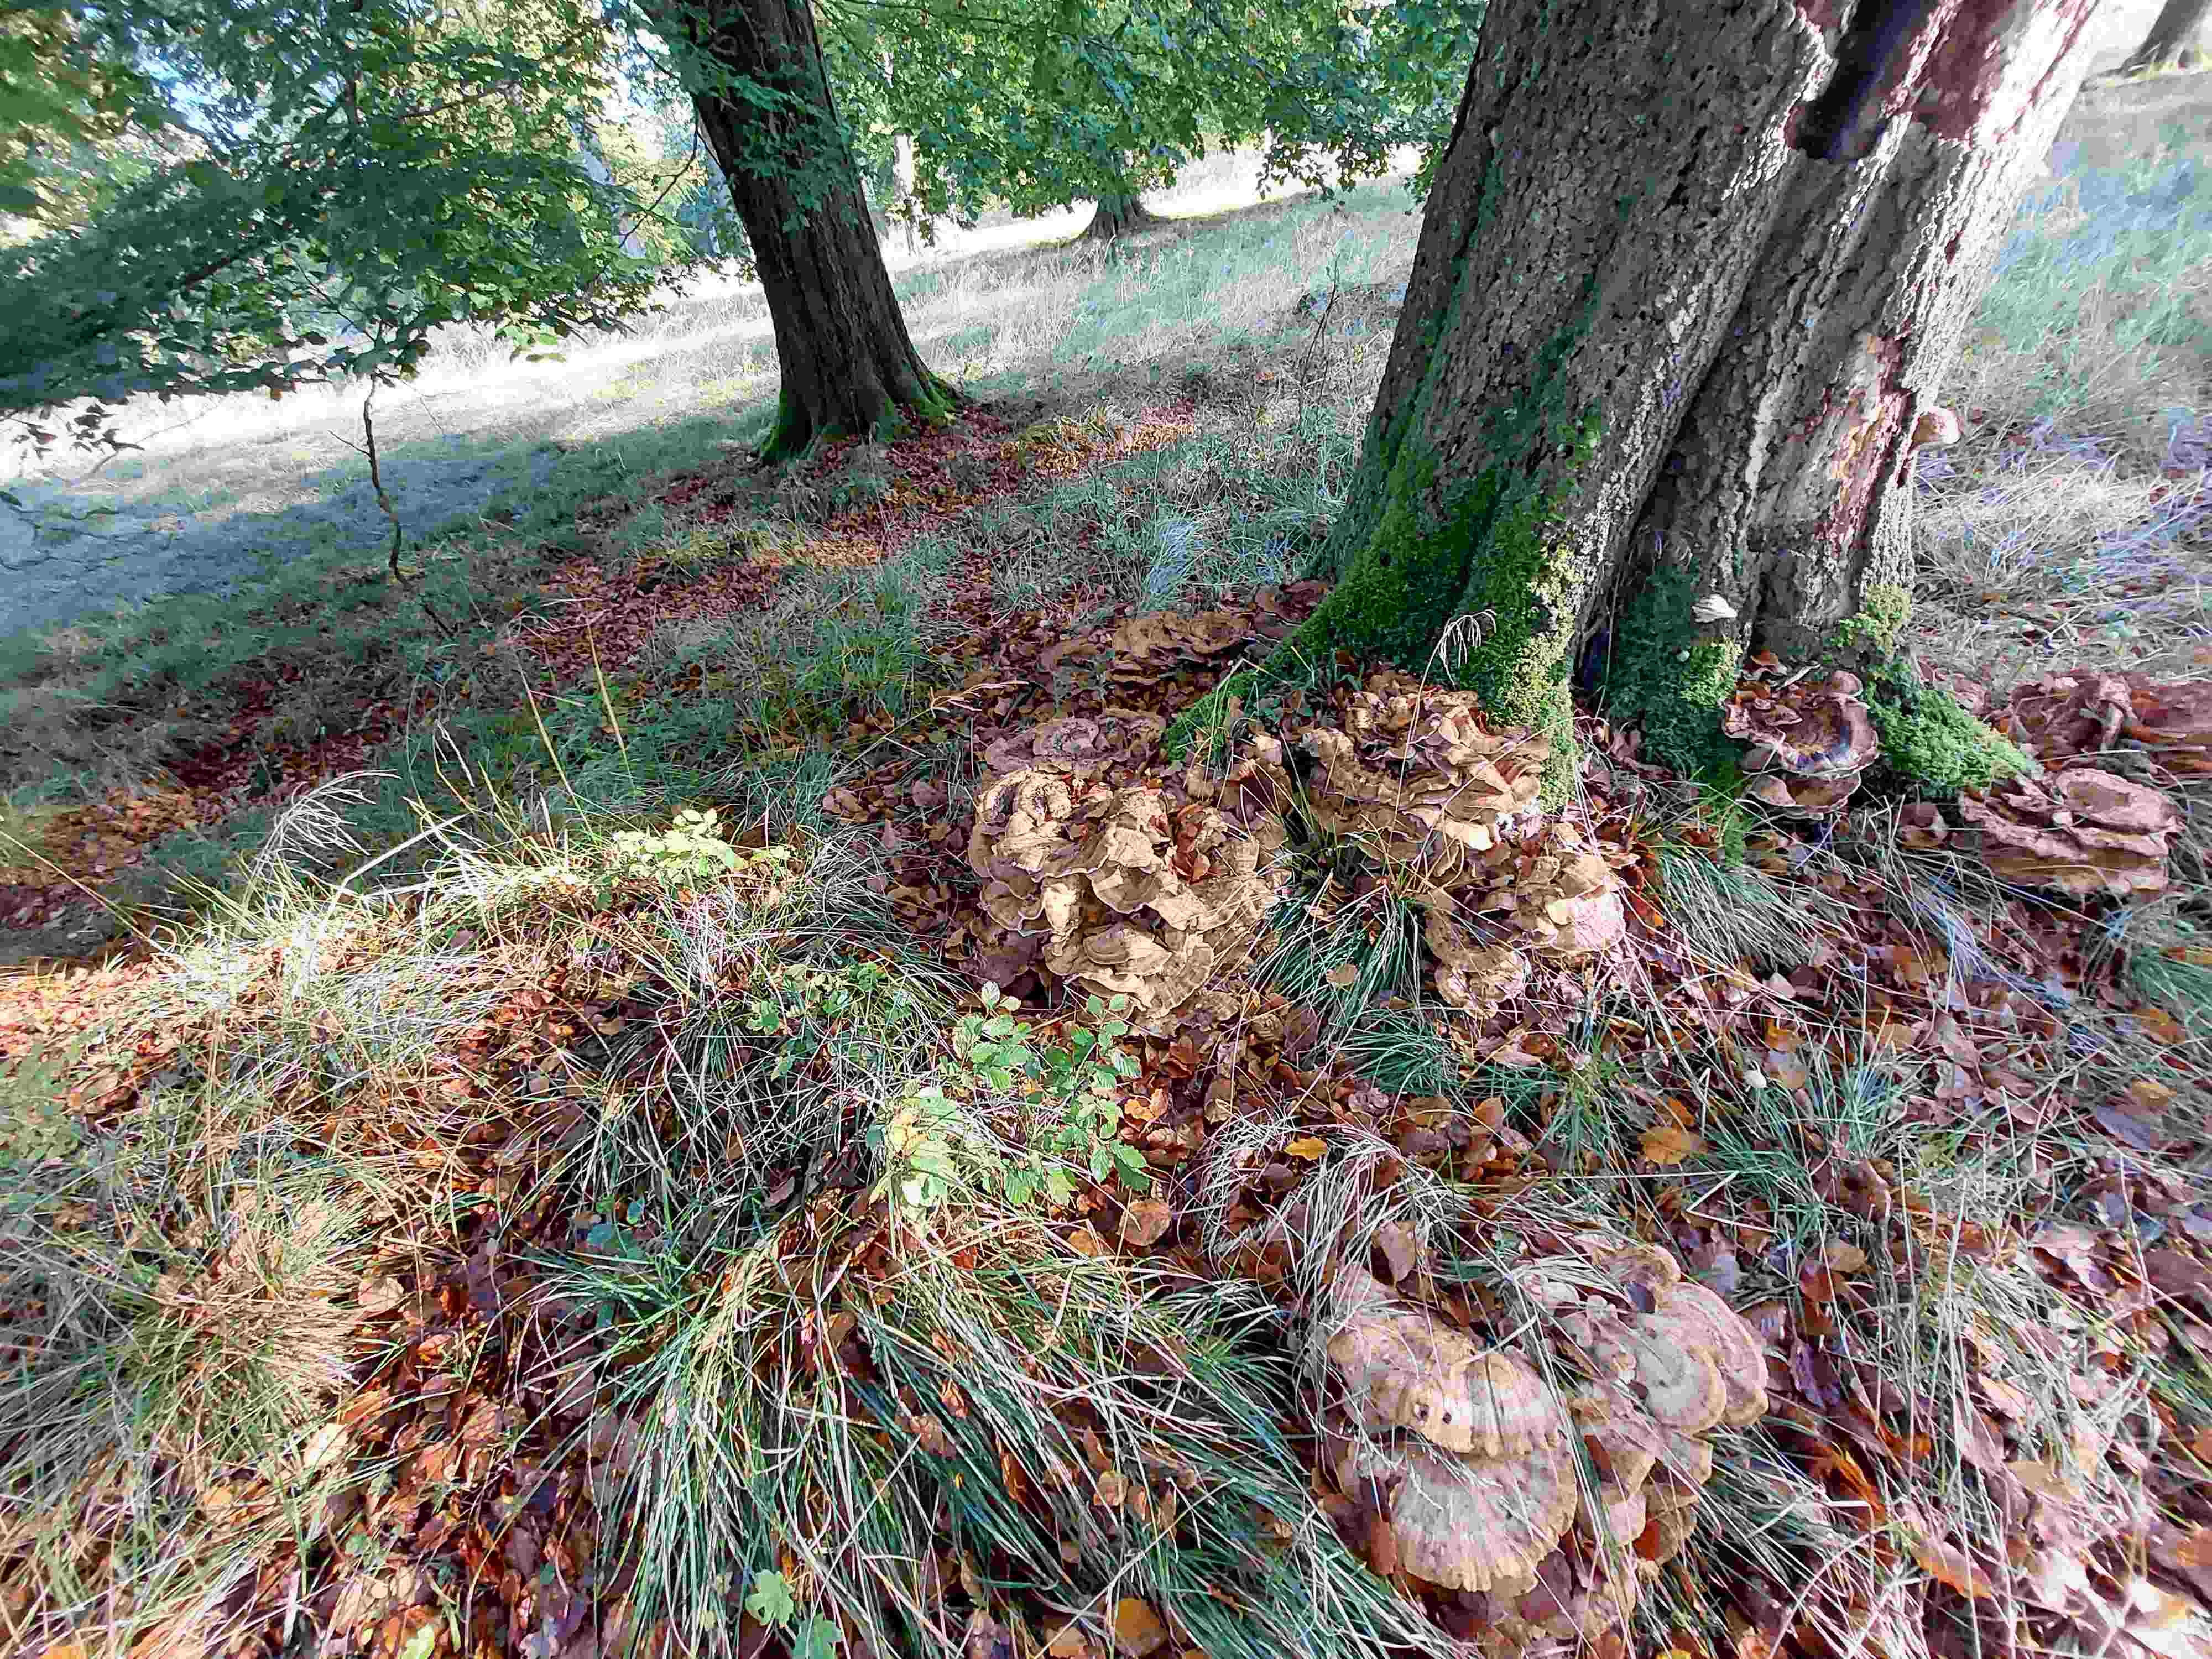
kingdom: Fungi
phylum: Basidiomycota
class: Agaricomycetes
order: Polyporales
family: Meripilaceae
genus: Meripilus
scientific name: Meripilus giganteus
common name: kæmpeporesvamp
